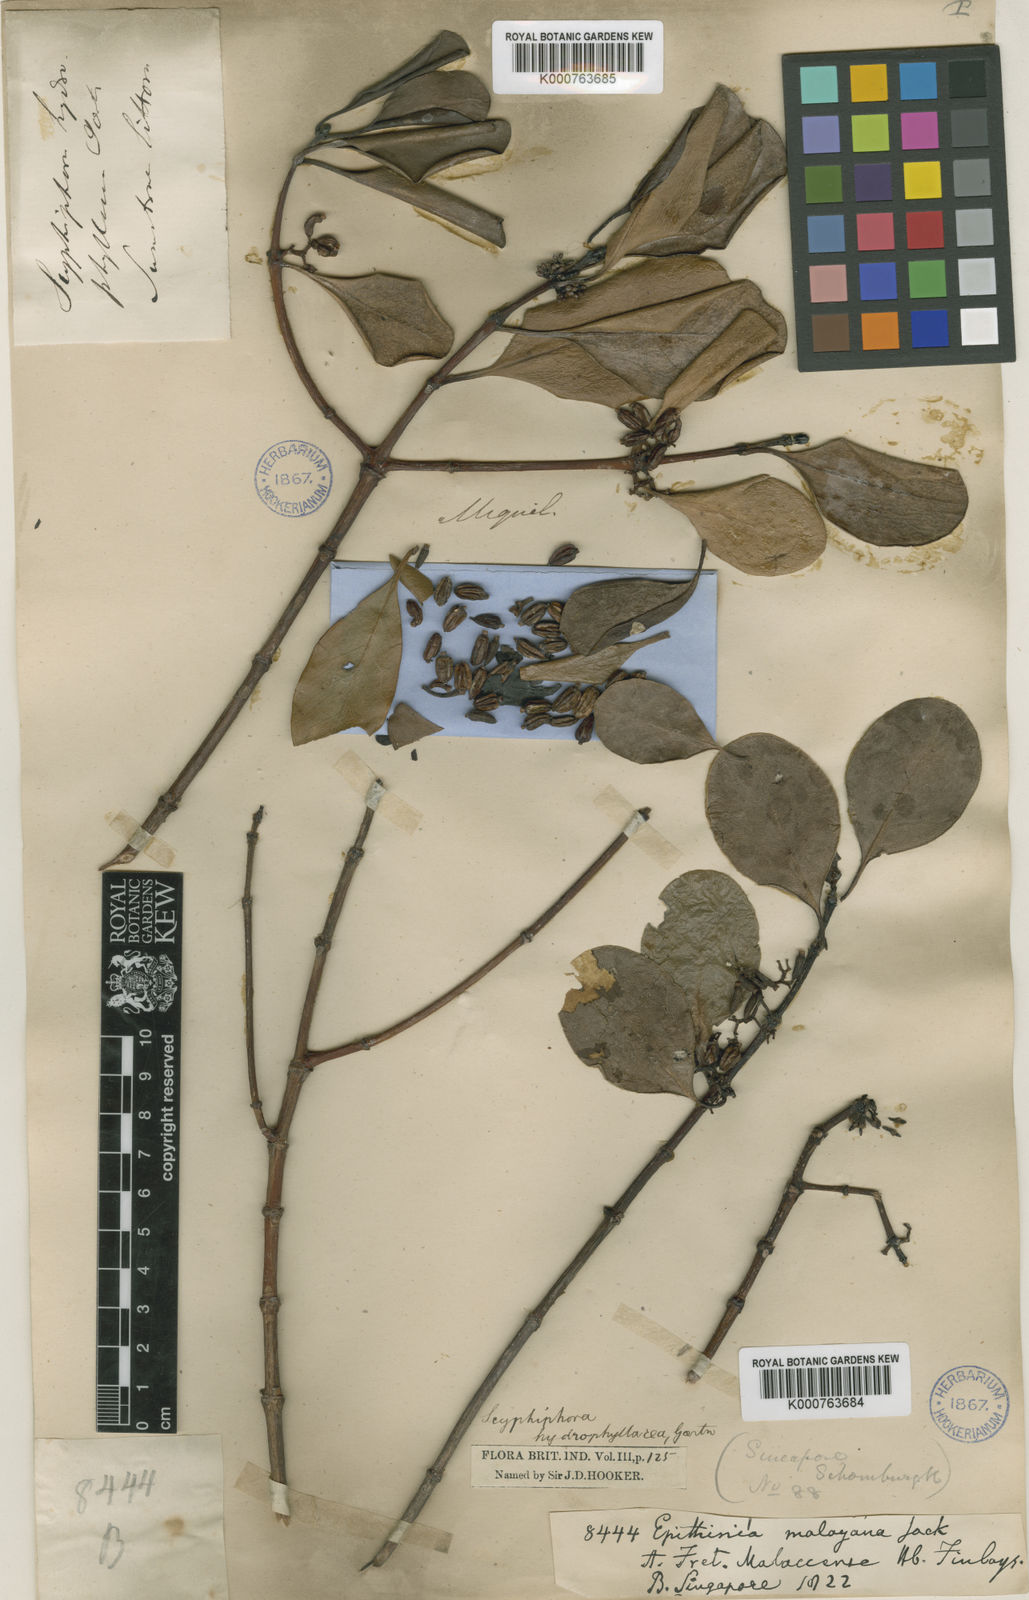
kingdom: Plantae
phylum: Tracheophyta
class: Magnoliopsida
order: Gentianales
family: Rubiaceae
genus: Scyphiphora
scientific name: Scyphiphora hydrophylacea
